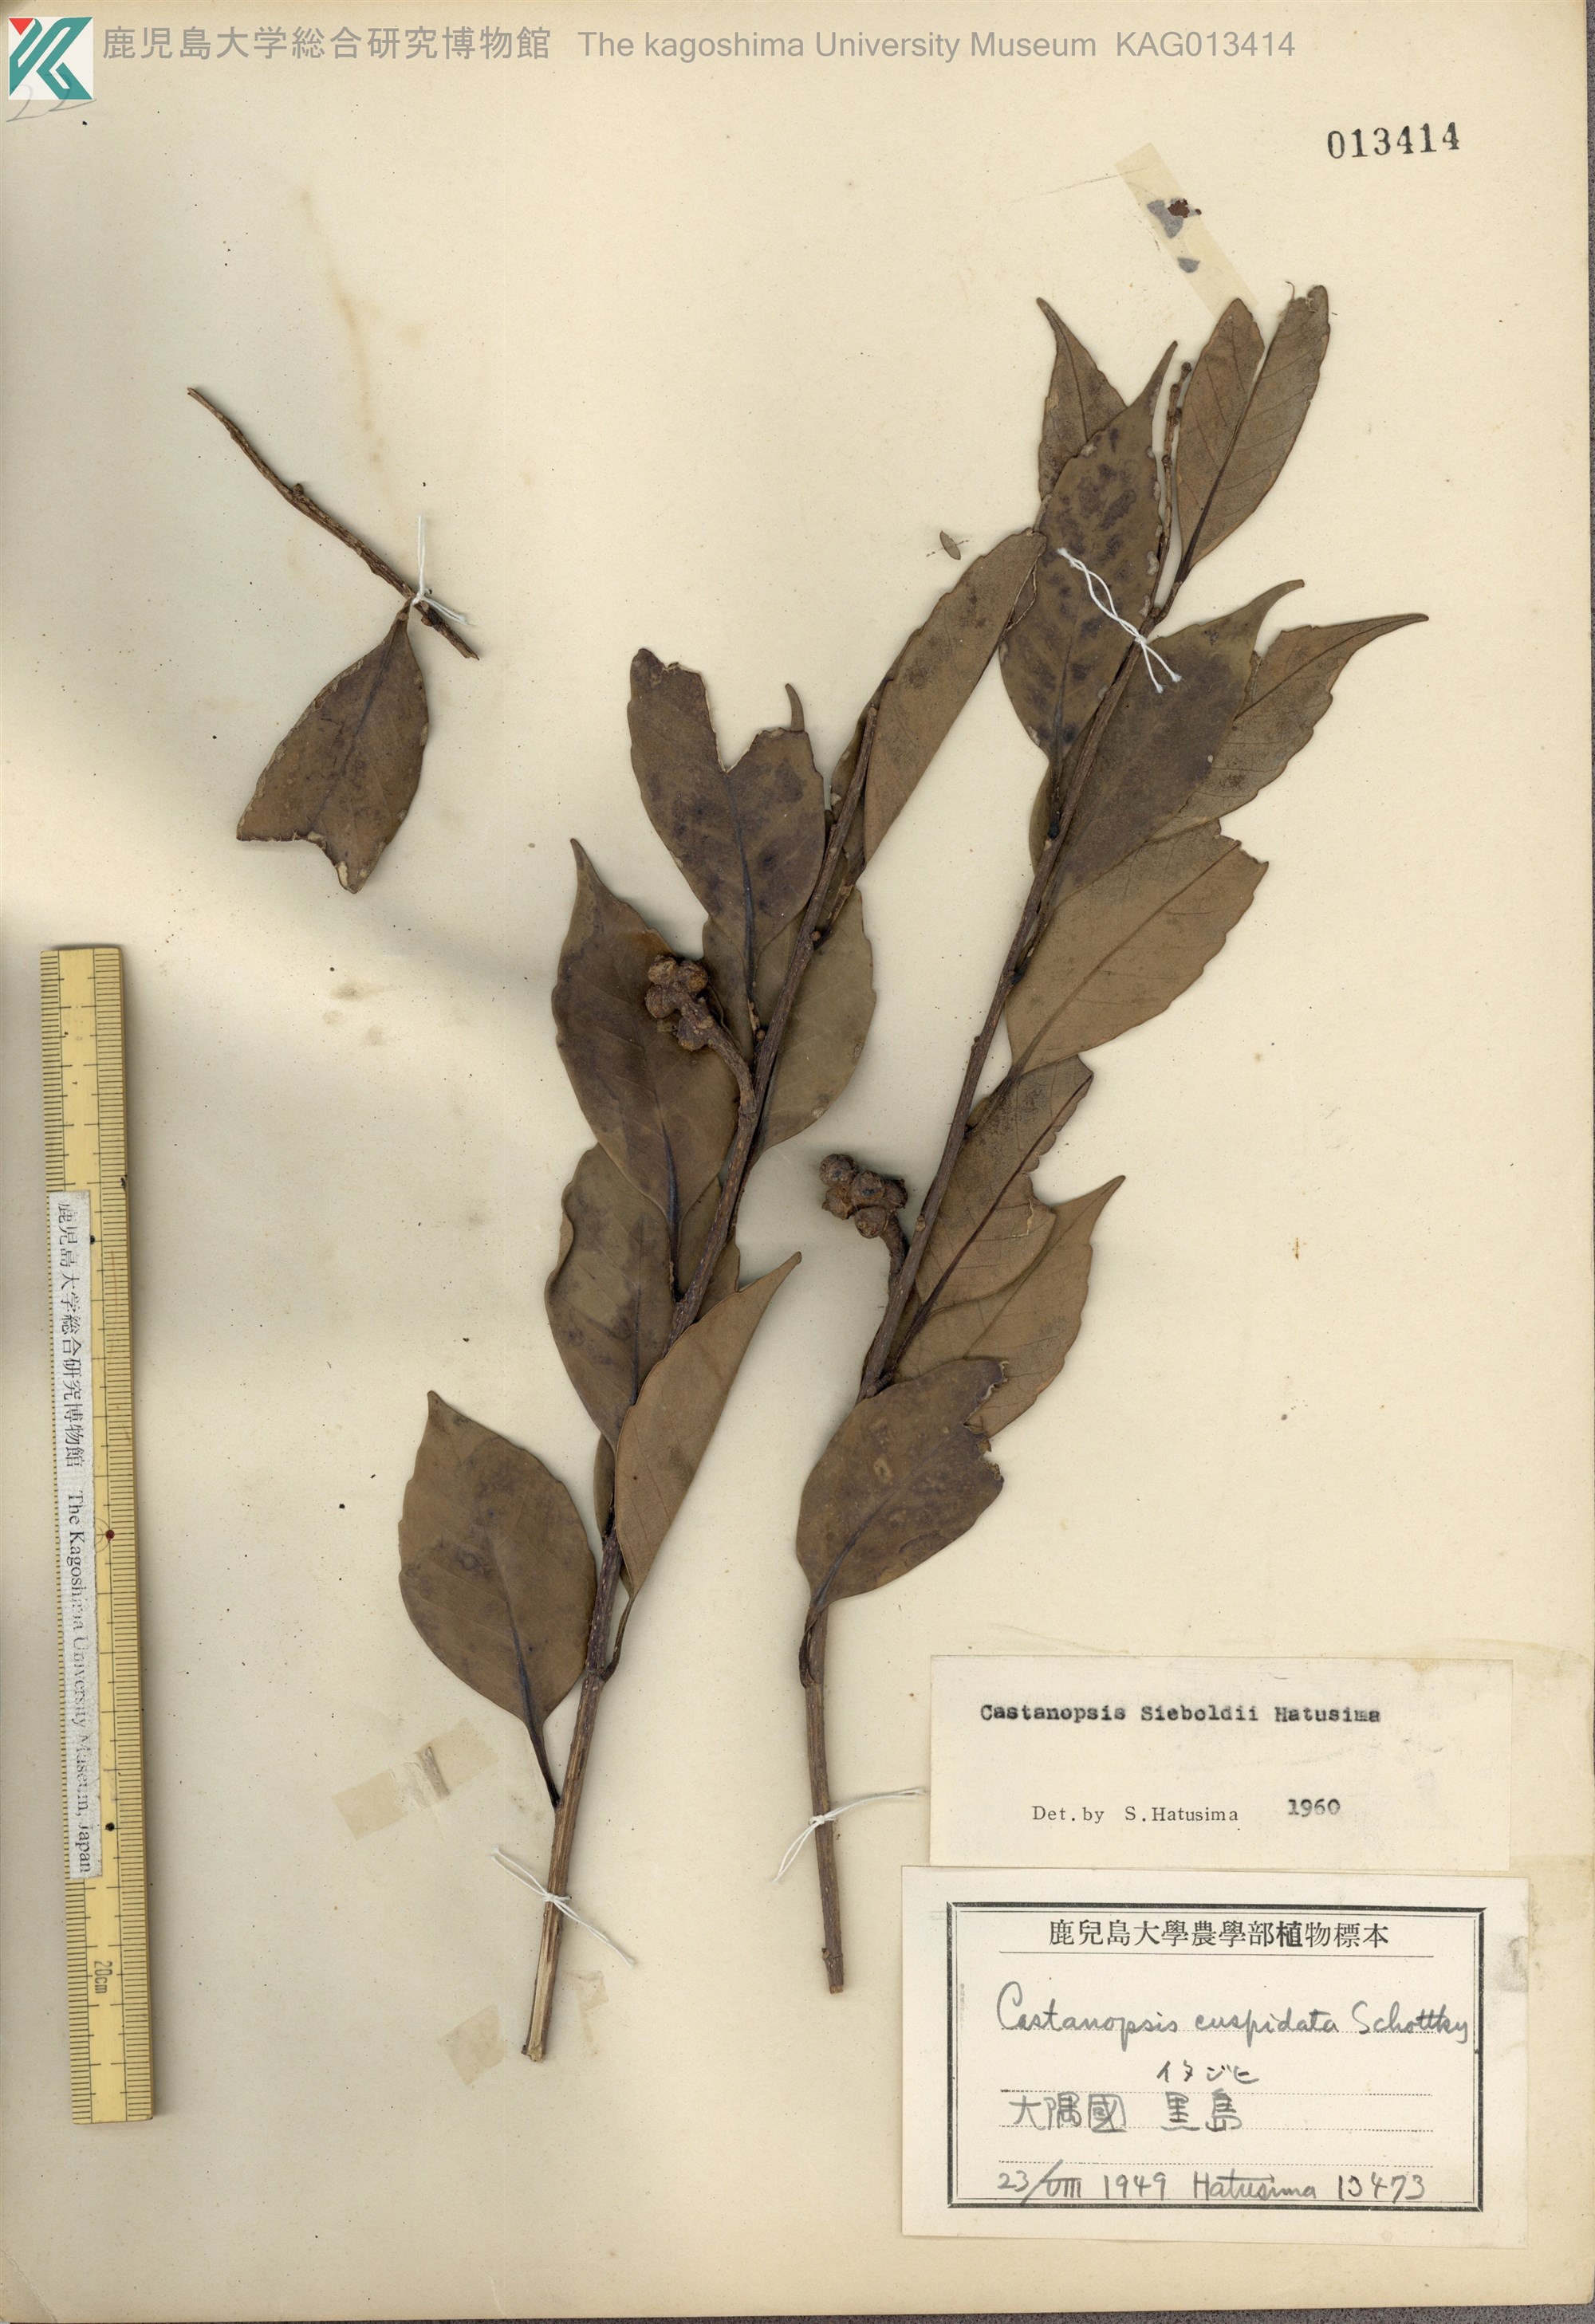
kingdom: Plantae
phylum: Tracheophyta
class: Magnoliopsida
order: Fagales
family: Fagaceae
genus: Castanopsis
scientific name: Castanopsis sieboldii
